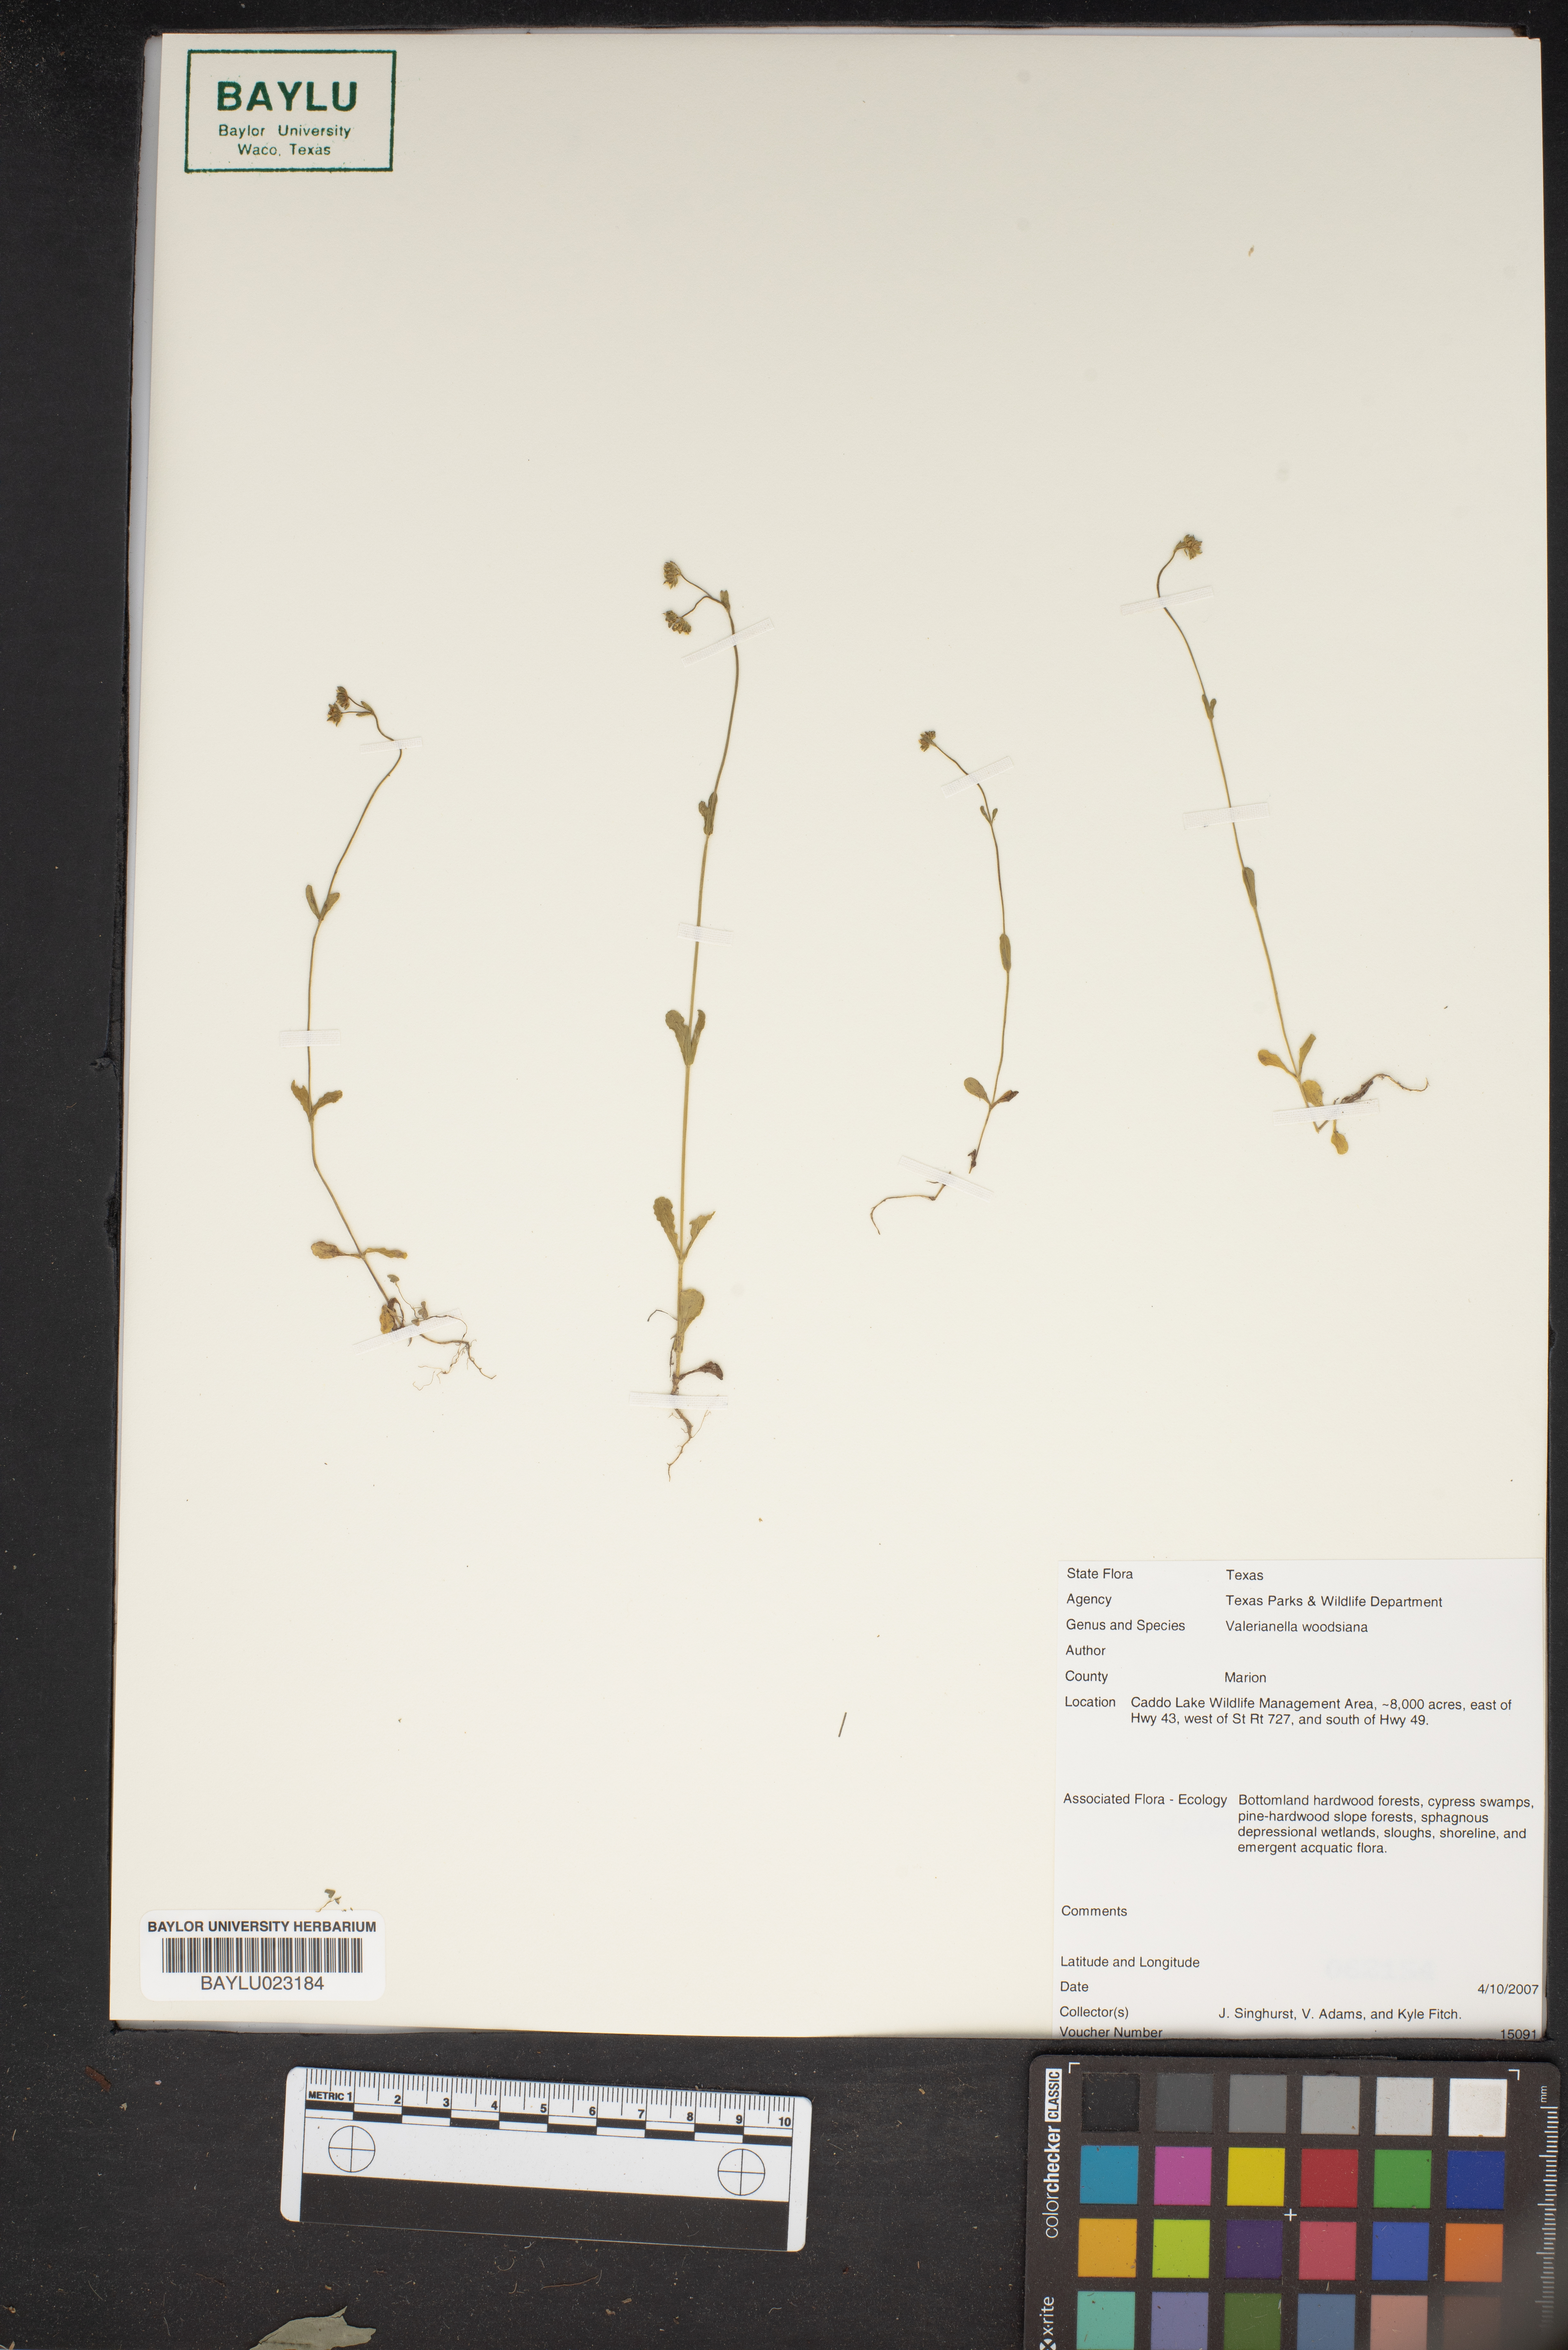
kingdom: Plantae
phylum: Tracheophyta
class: Magnoliopsida
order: Dipsacales
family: Caprifoliaceae
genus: Valerianella
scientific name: Valerianella radiata
